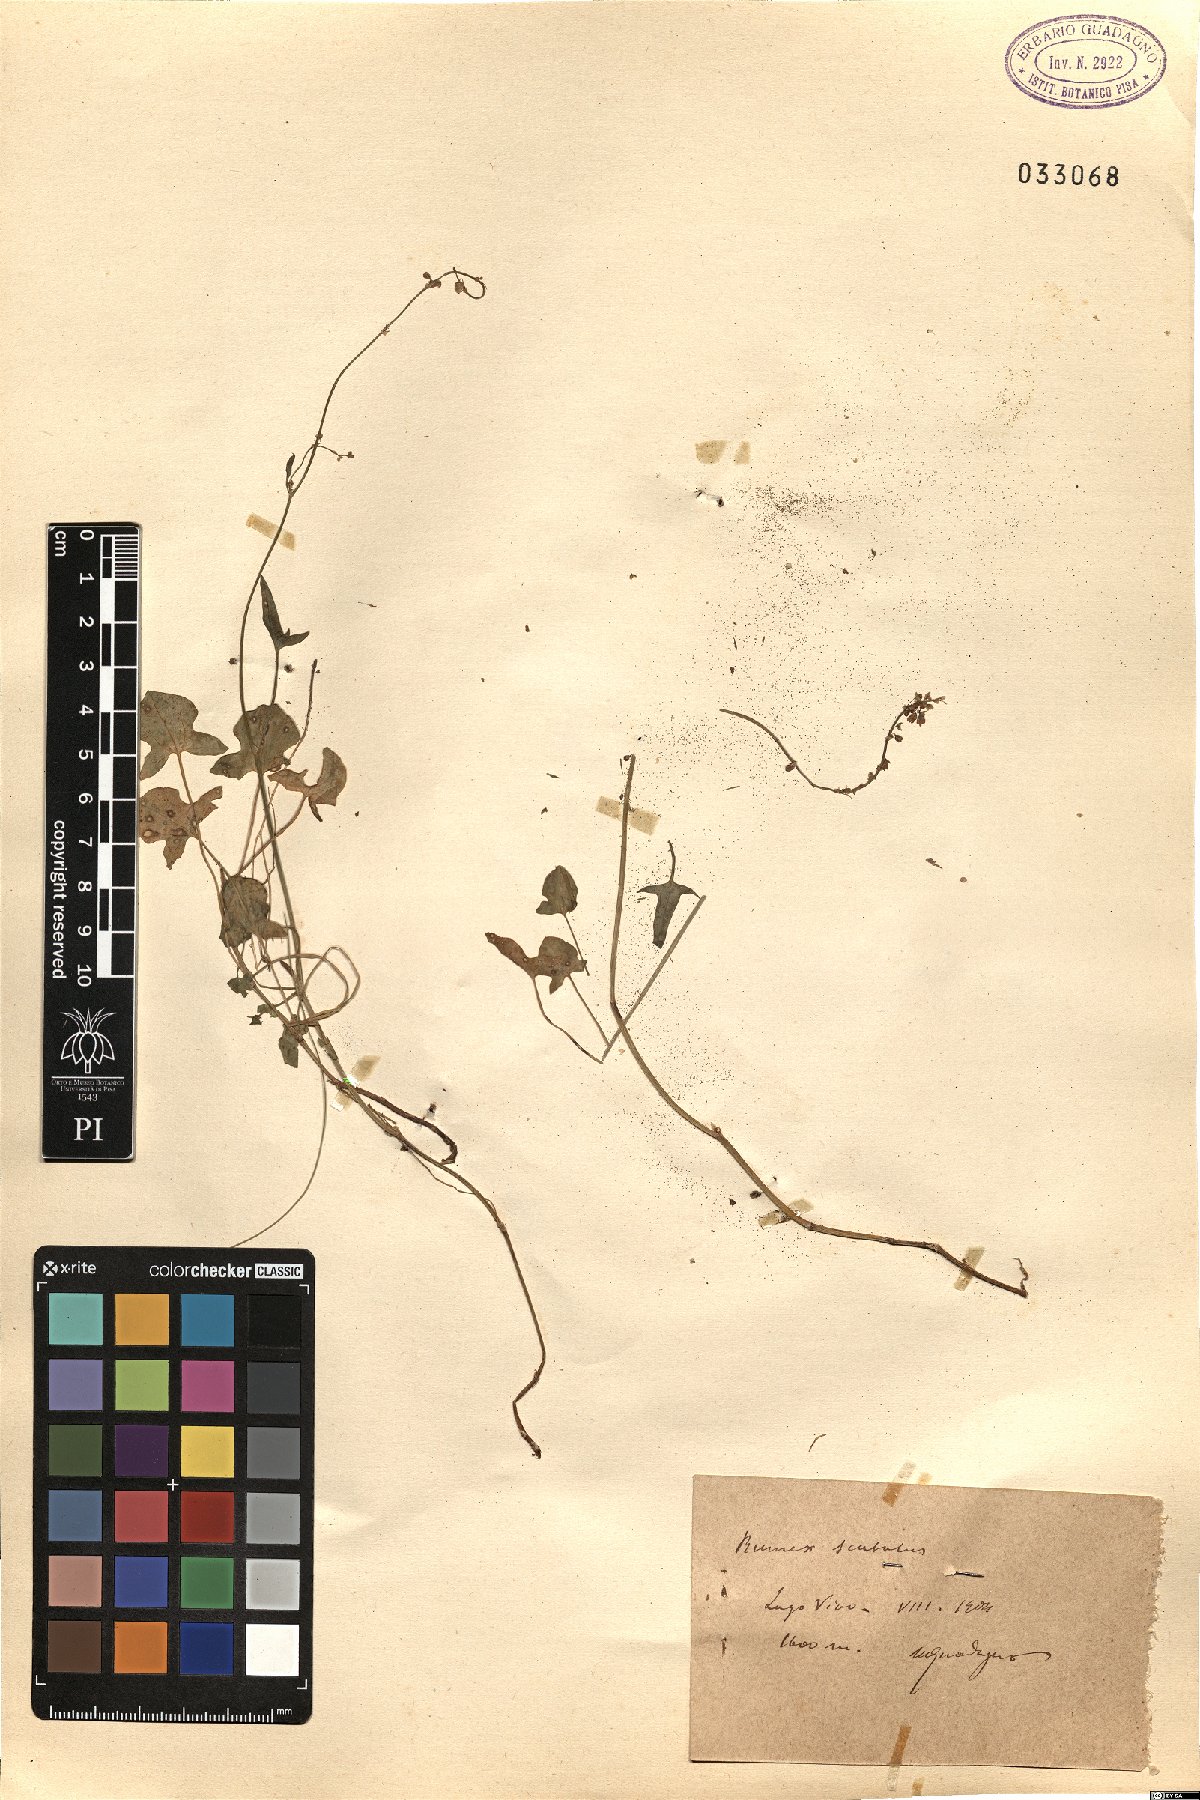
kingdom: Plantae
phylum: Tracheophyta
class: Magnoliopsida
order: Caryophyllales
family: Polygonaceae
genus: Rumex
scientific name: Rumex scutatus
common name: French sorrel
